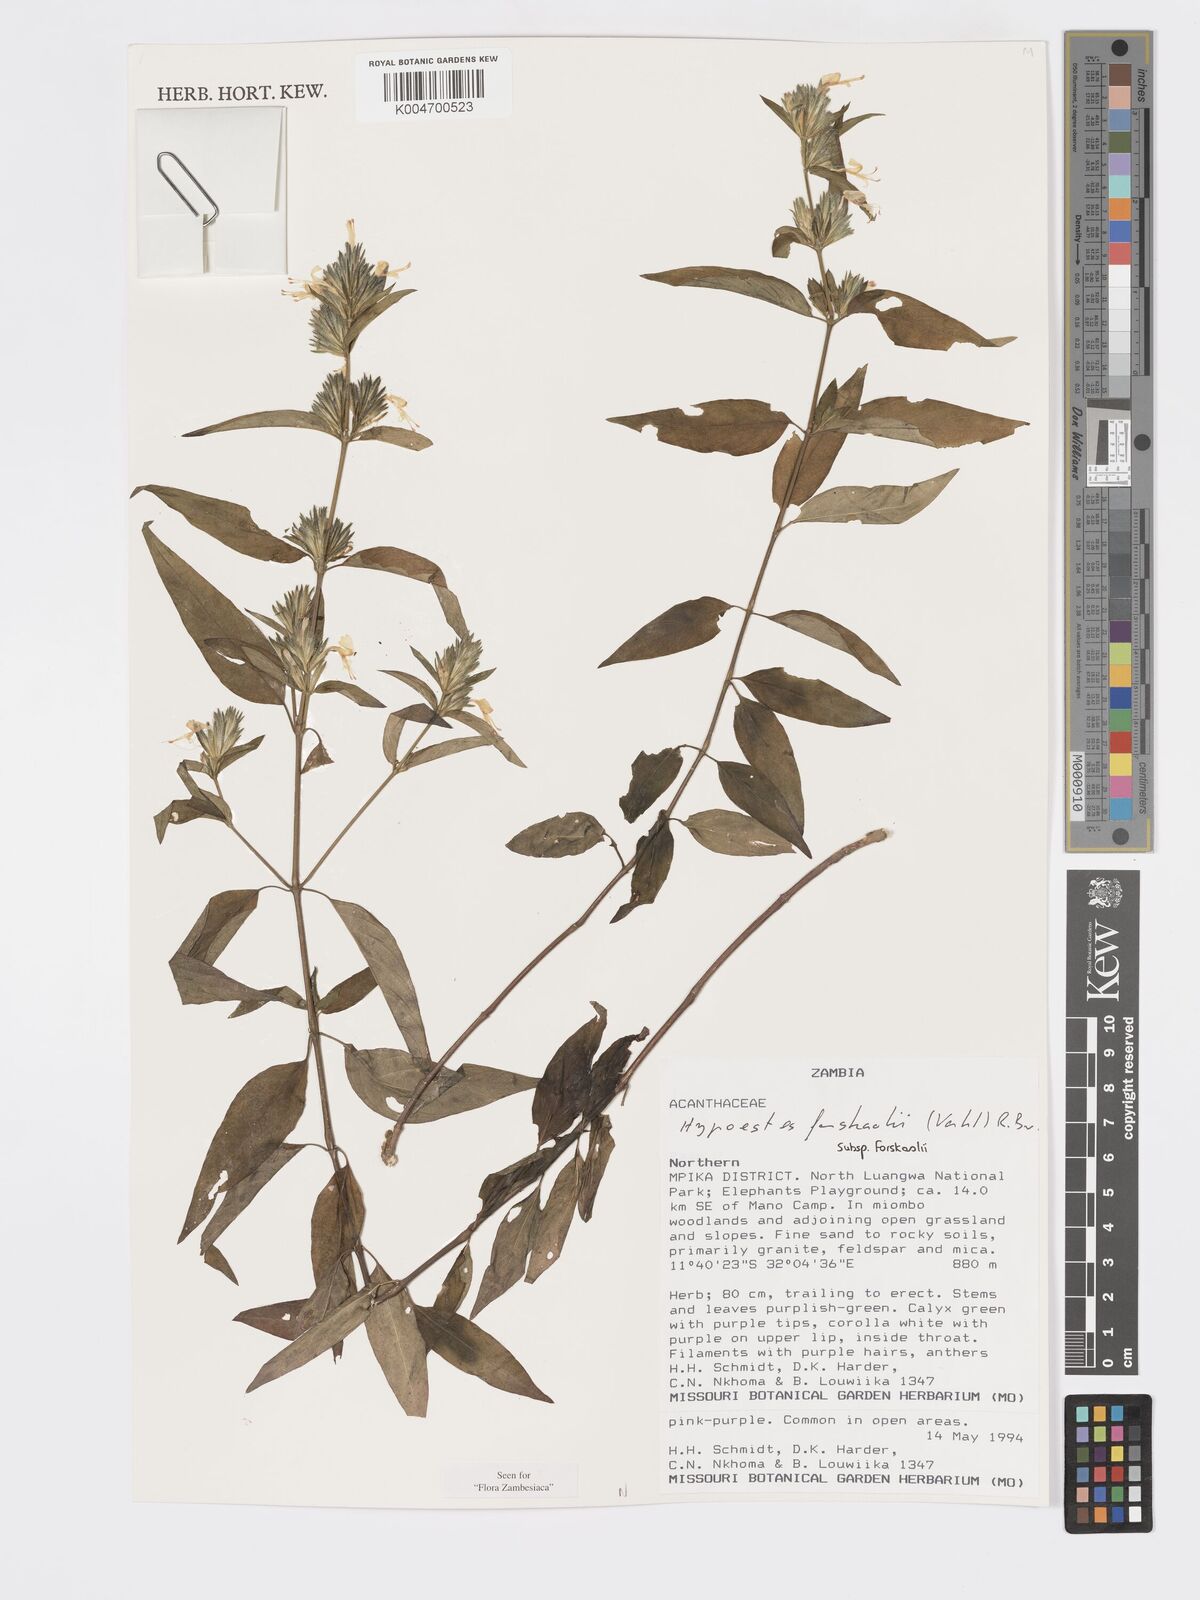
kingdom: Plantae
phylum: Tracheophyta
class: Magnoliopsida
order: Lamiales
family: Acanthaceae
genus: Hypoestes
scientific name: Hypoestes forskaolii
